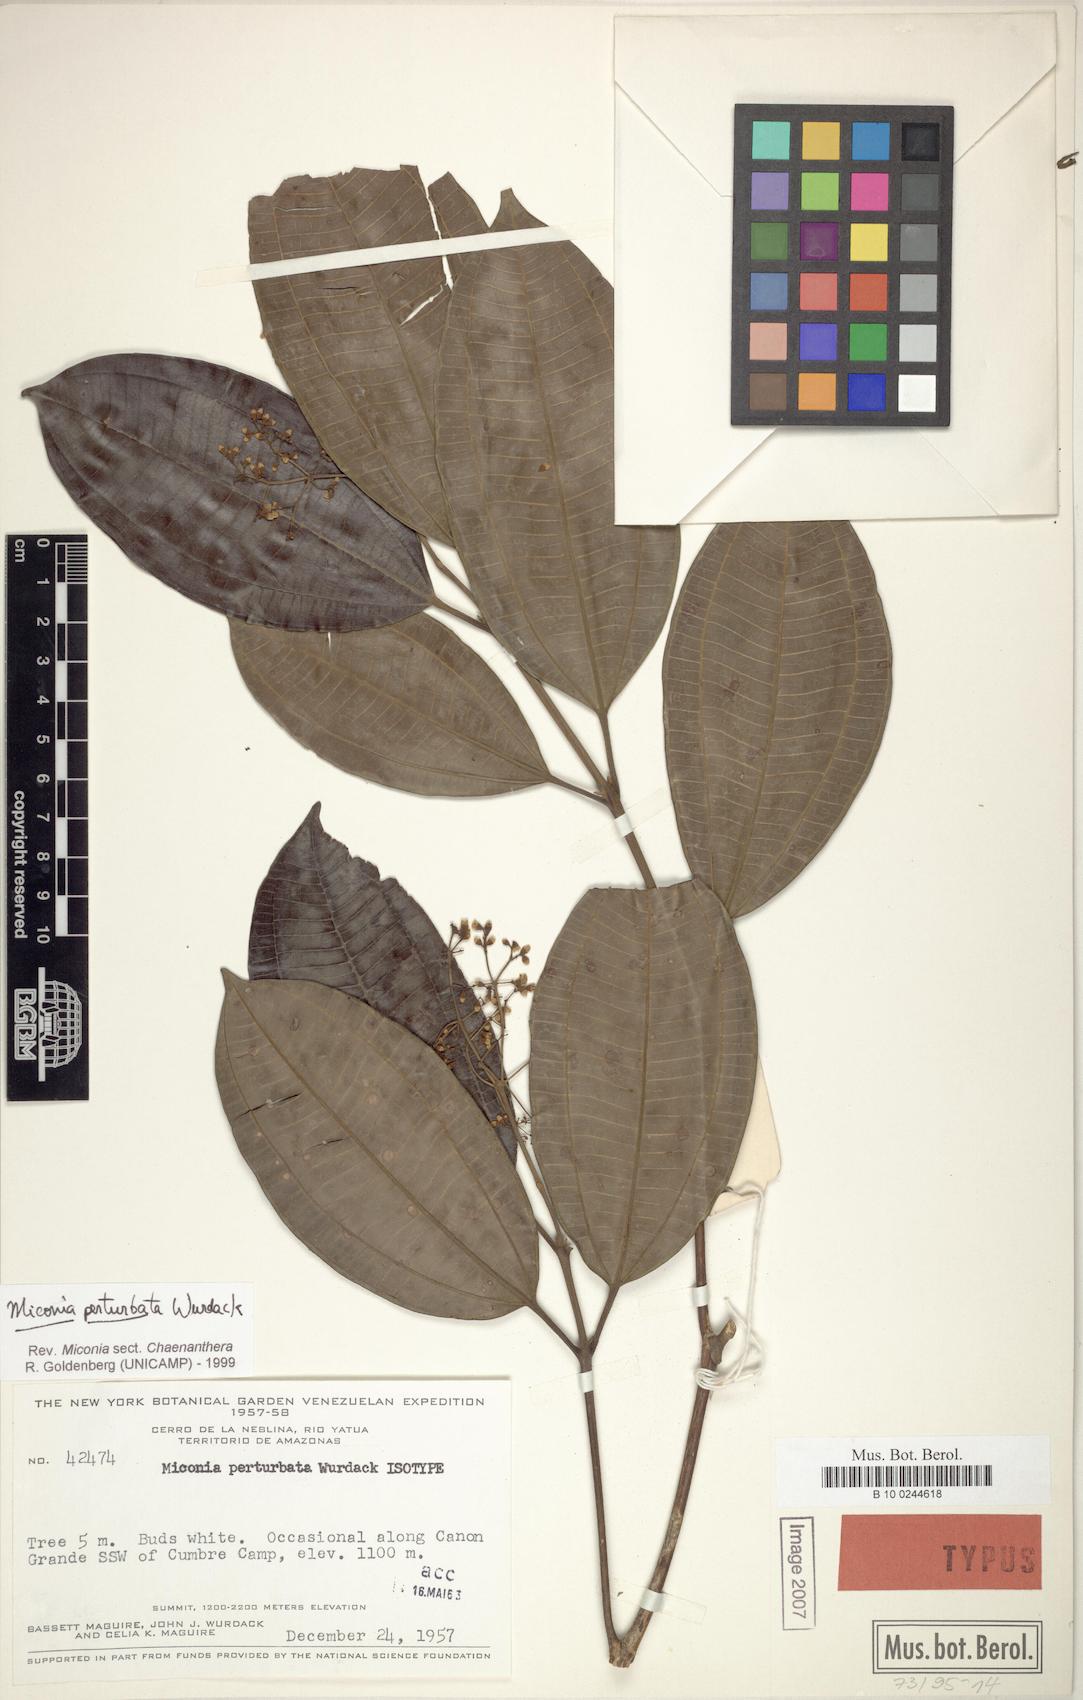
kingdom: Plantae
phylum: Tracheophyta
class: Magnoliopsida
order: Myrtales
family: Melastomataceae
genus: Miconia
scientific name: Miconia perturbata
